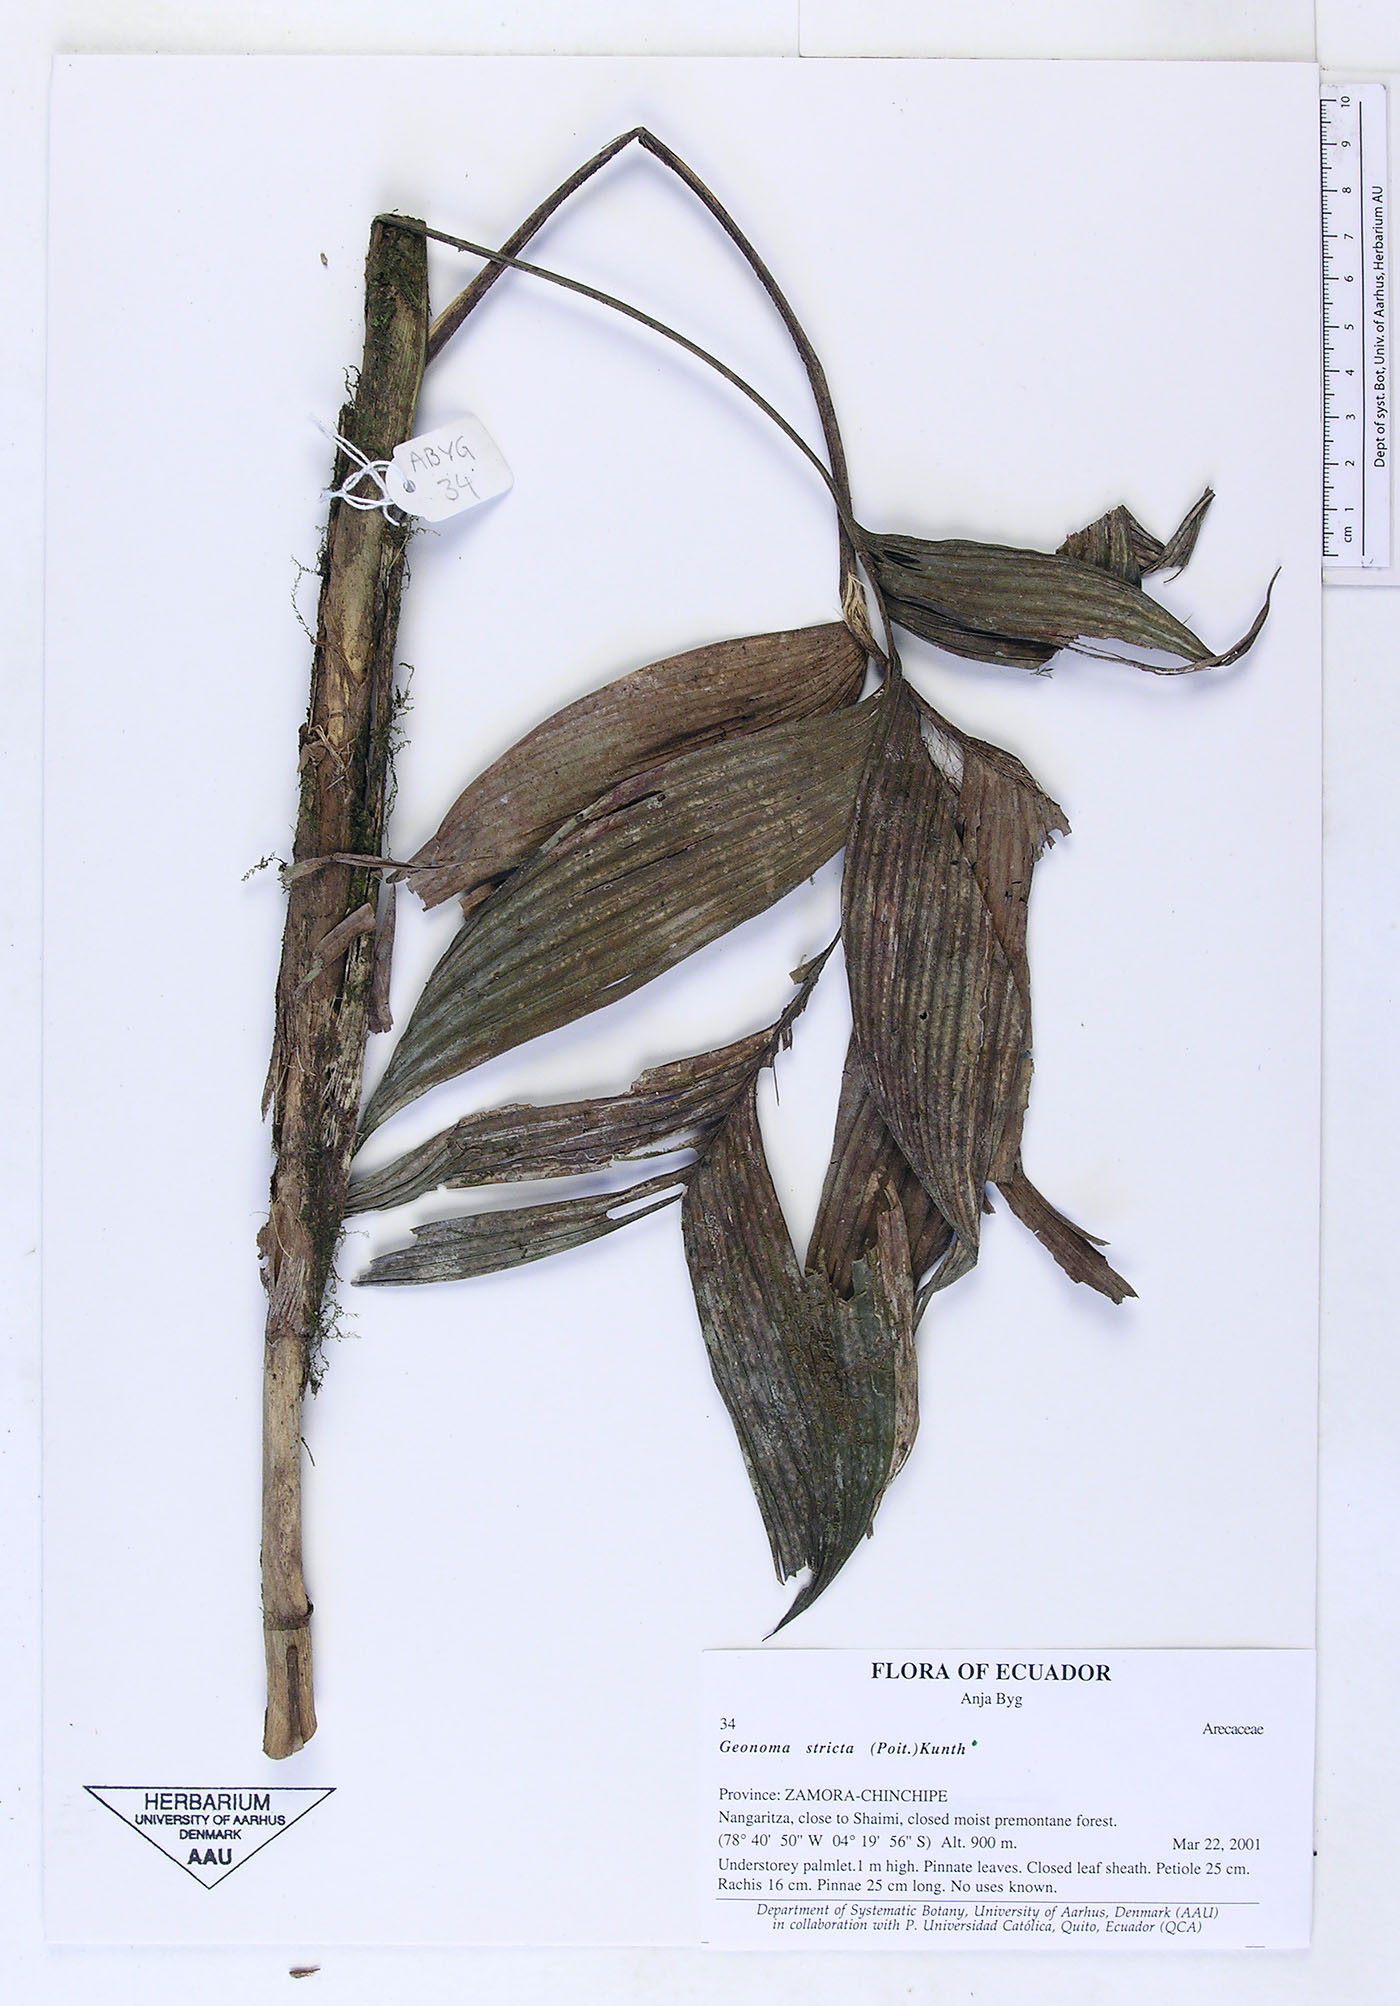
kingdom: Plantae
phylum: Tracheophyta
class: Liliopsida
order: Arecales
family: Arecaceae
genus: Geonoma
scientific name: Geonoma stricta
